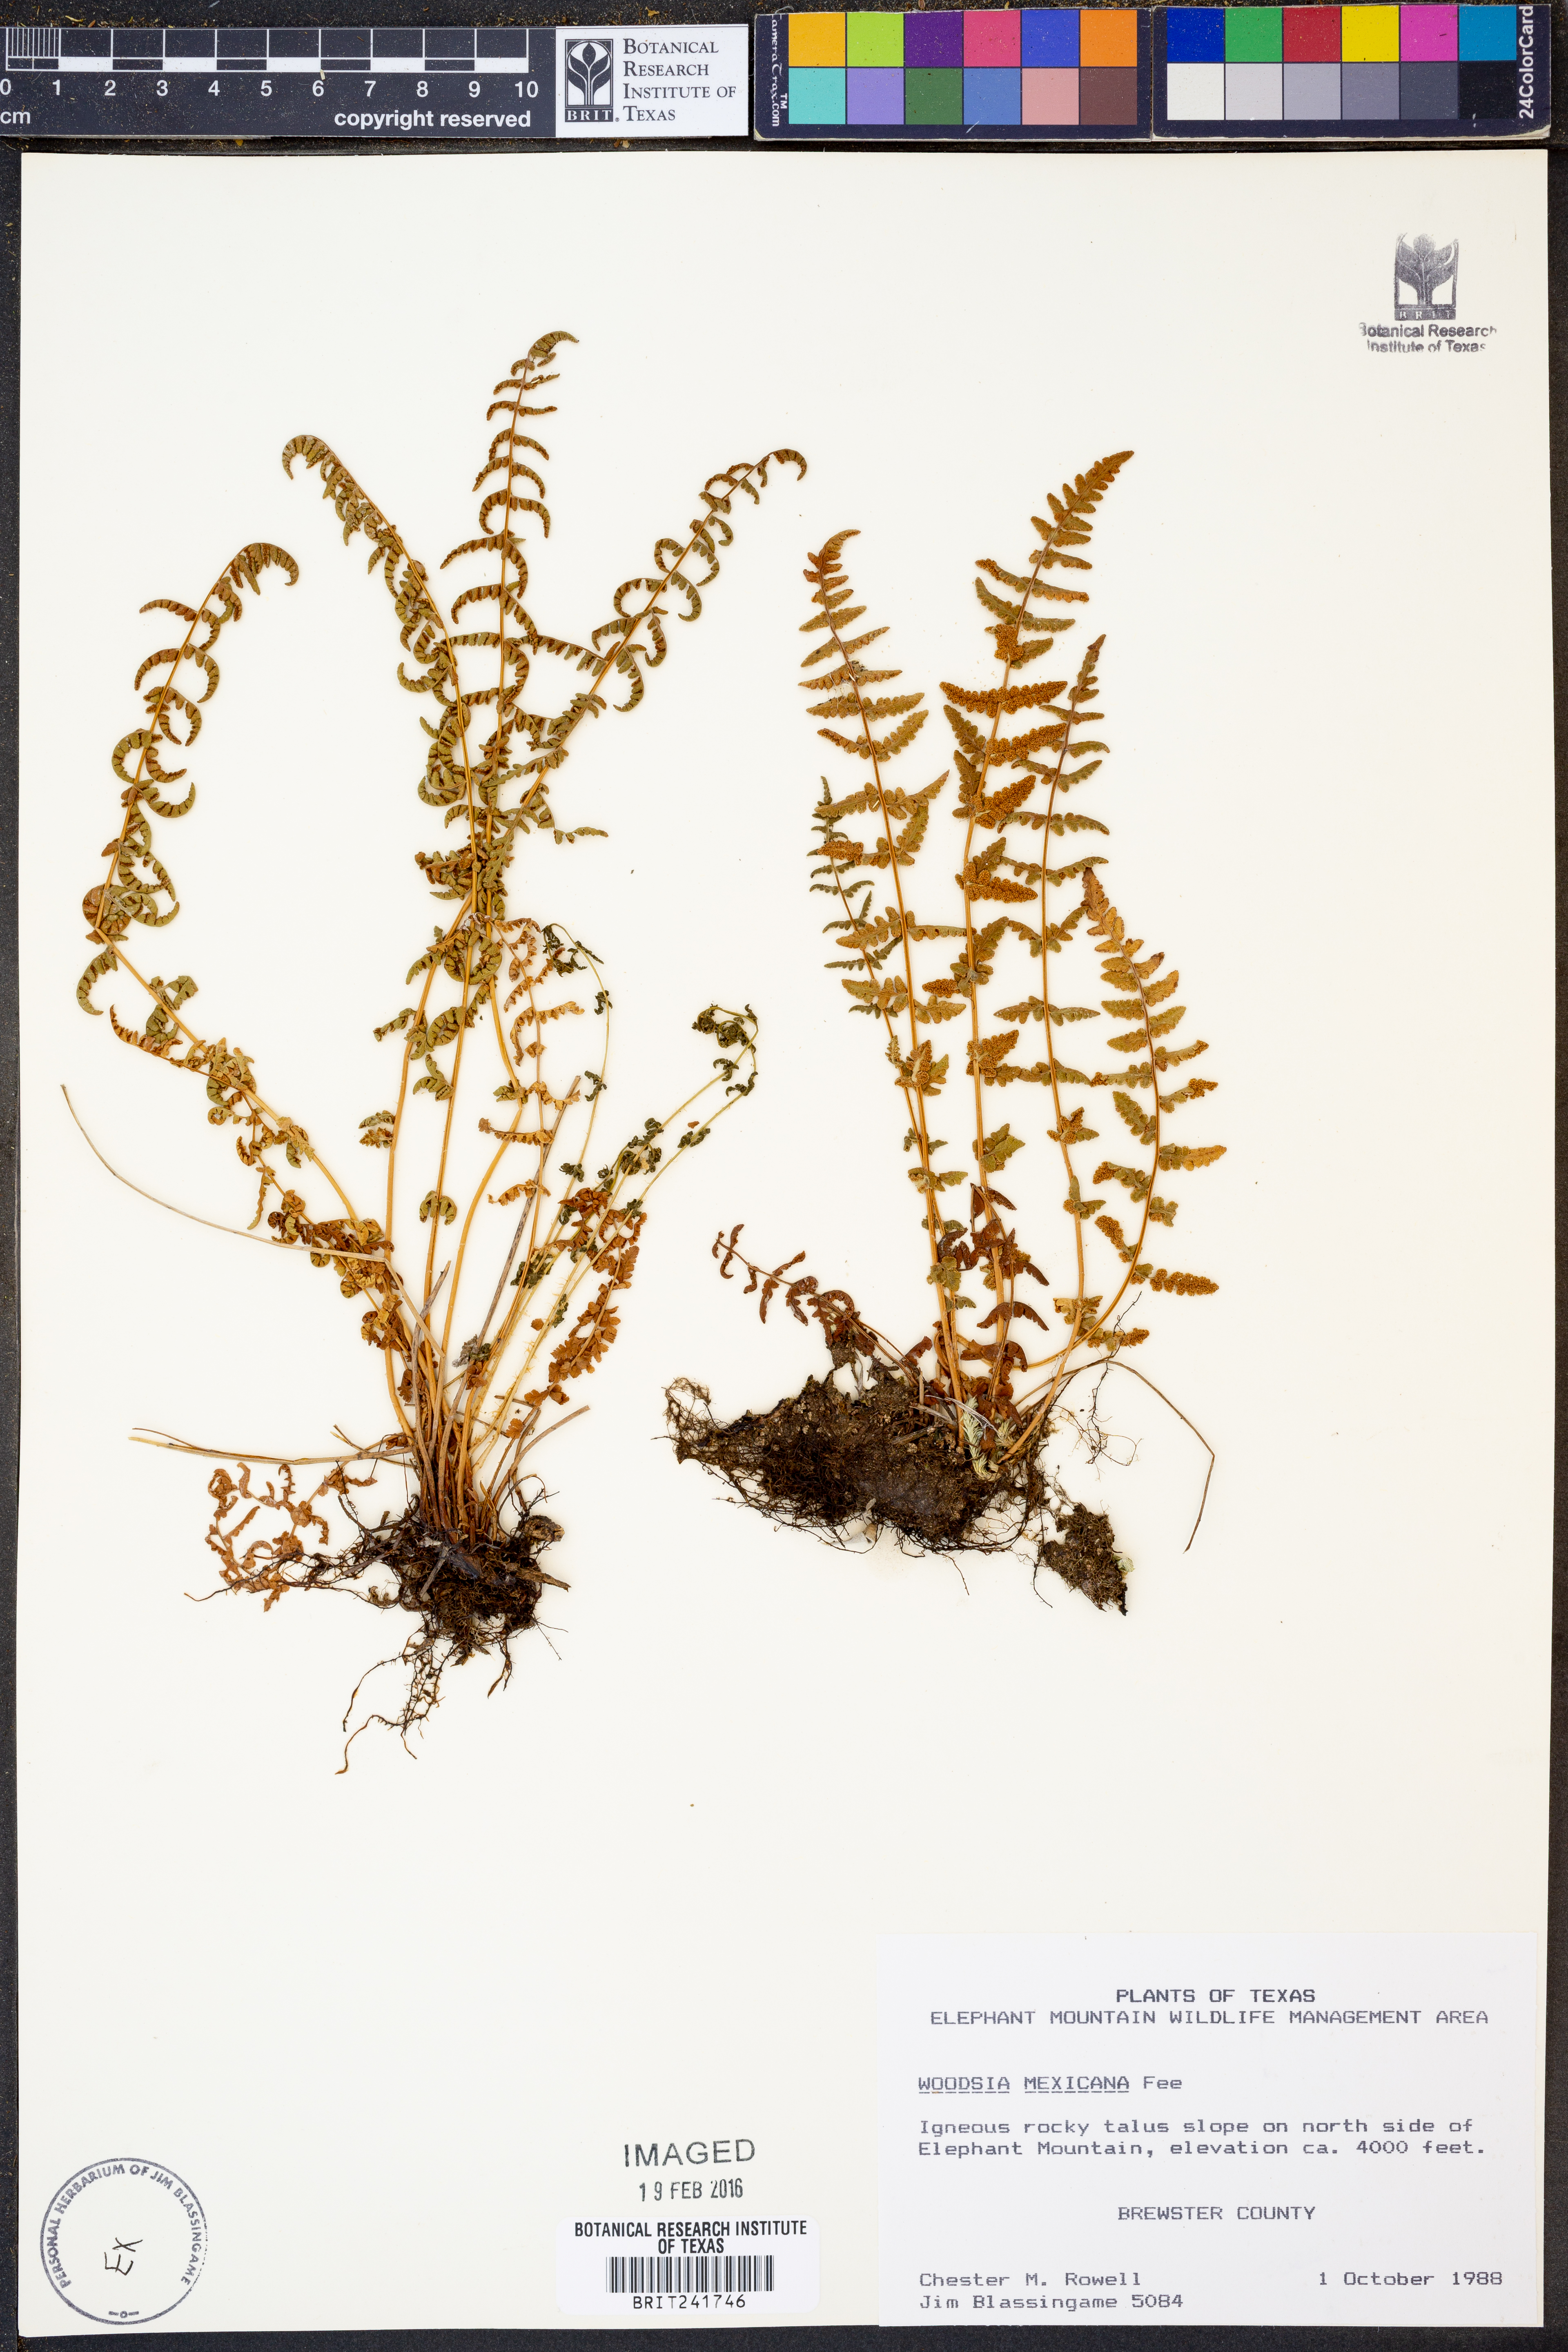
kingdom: Plantae
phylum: Tracheophyta
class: Polypodiopsida
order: Polypodiales
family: Woodsiaceae
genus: Physematium
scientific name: Physematium mexicanum
